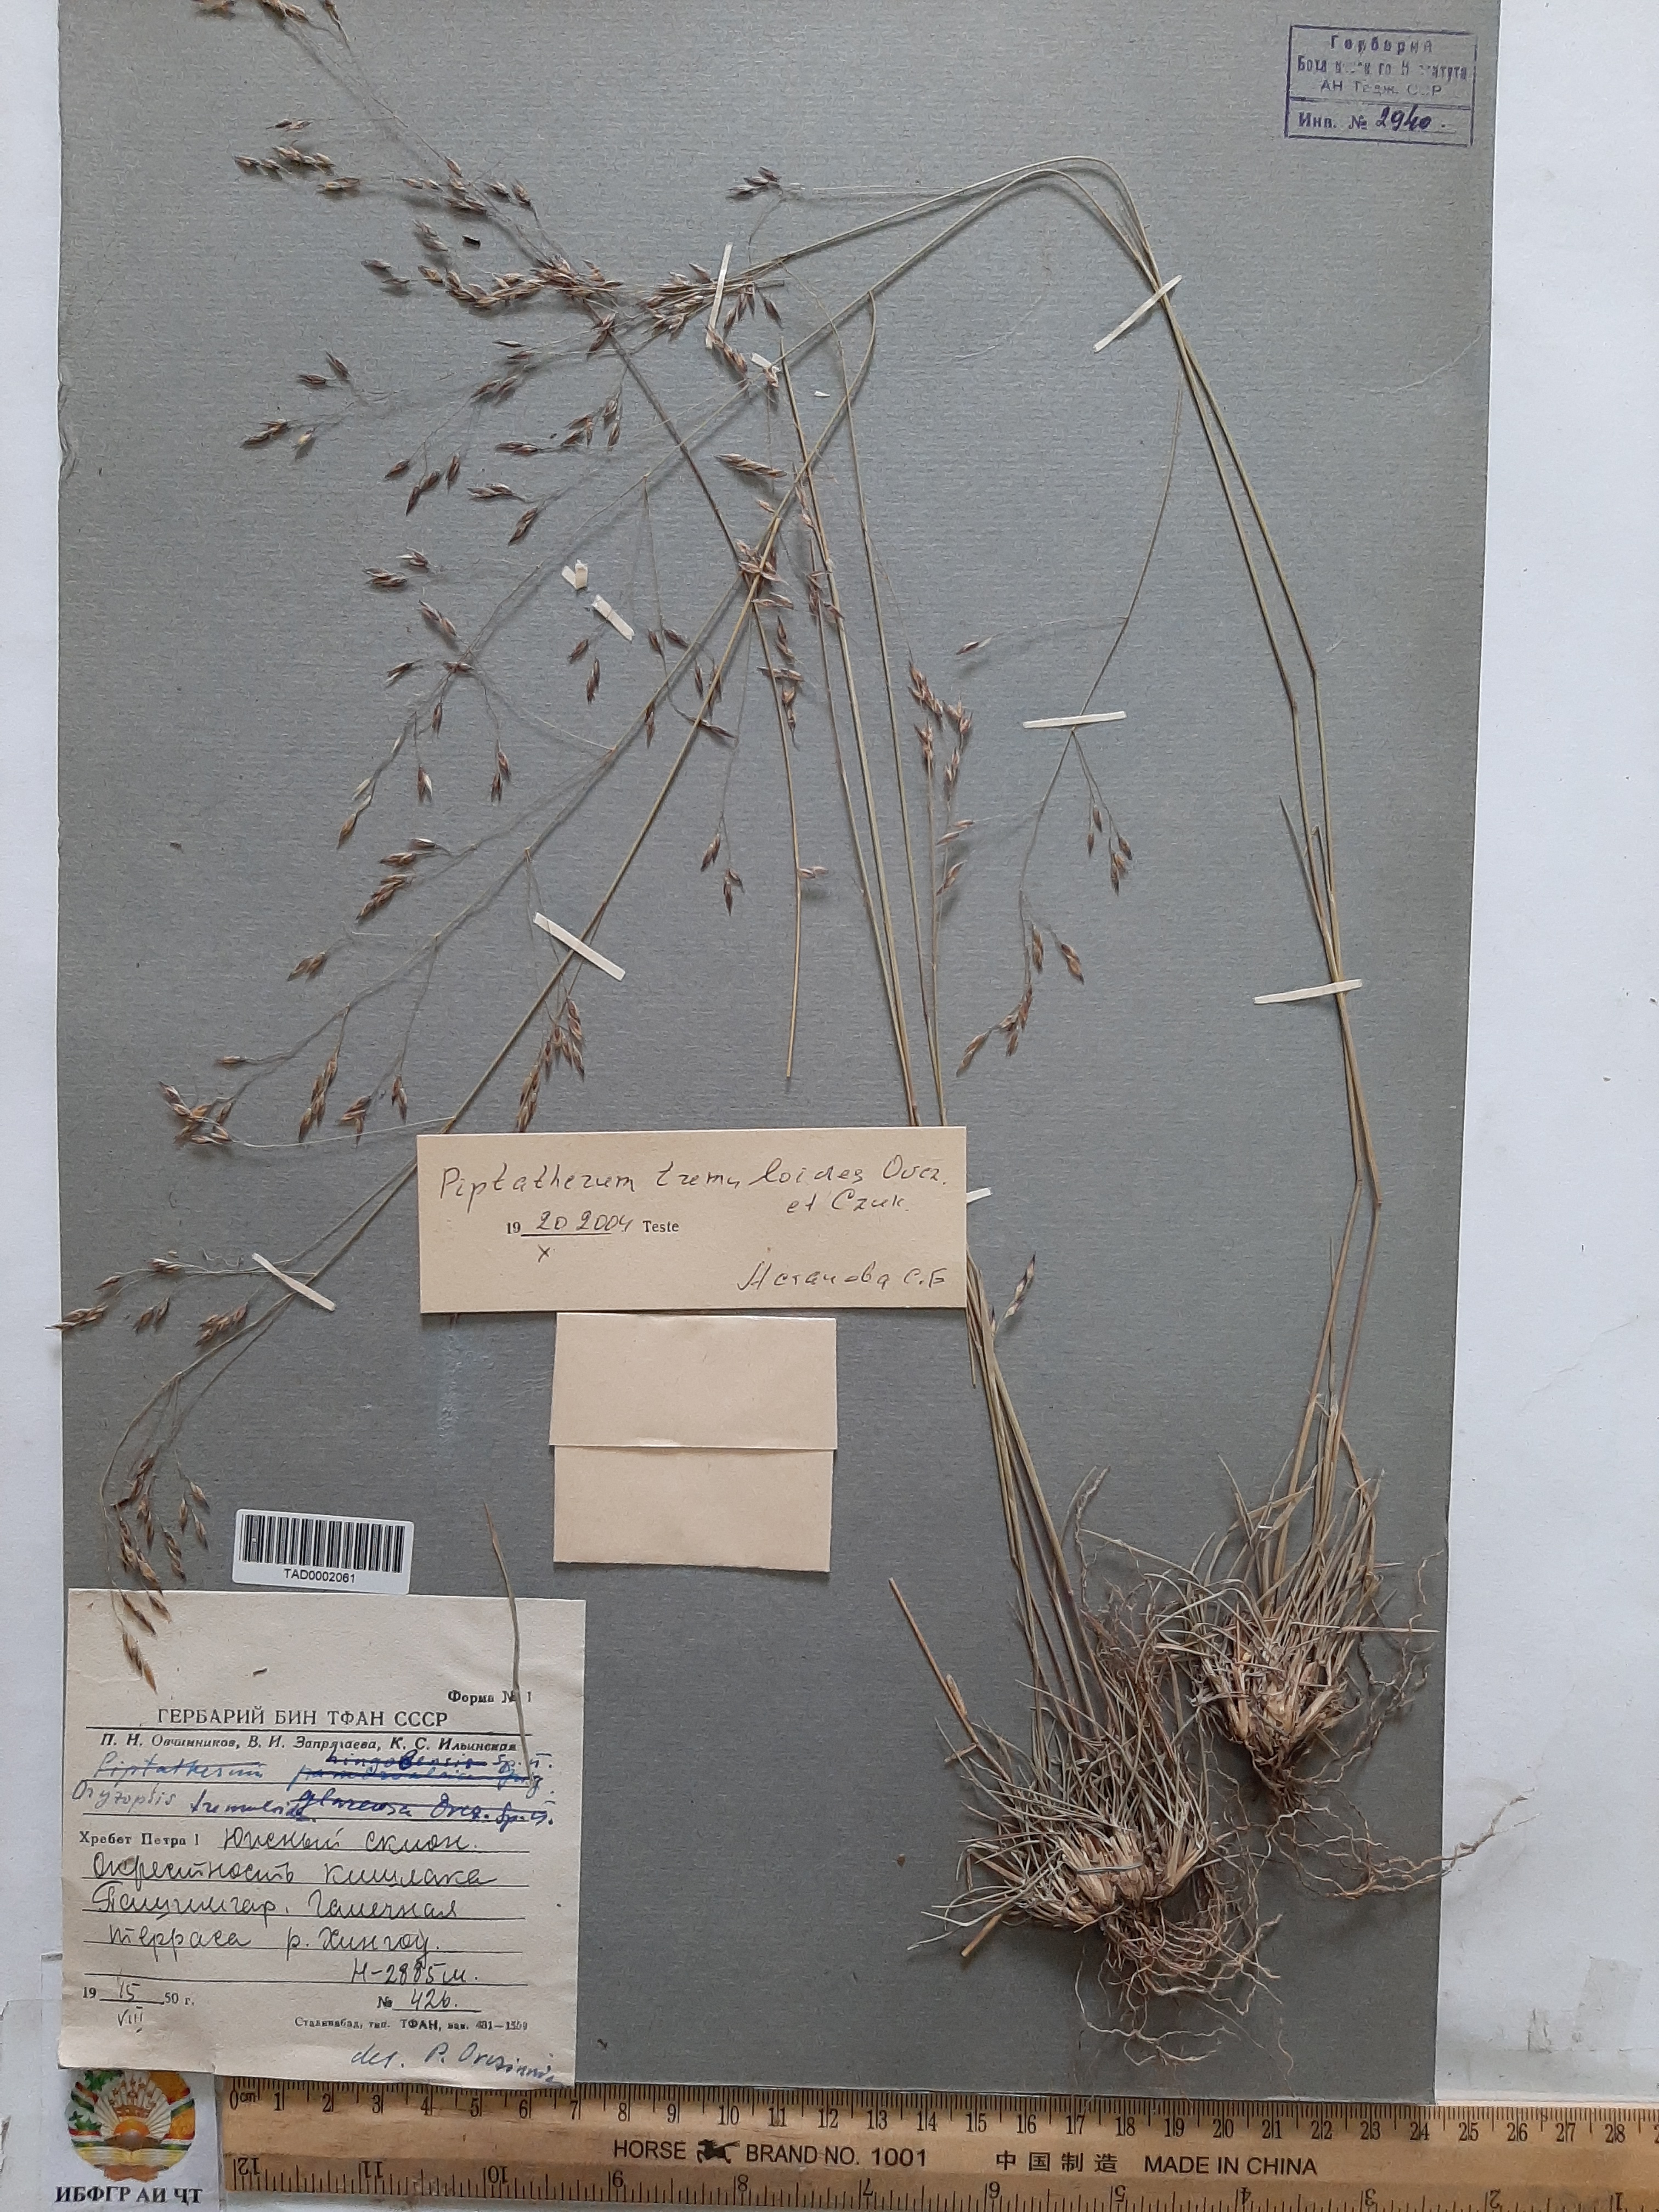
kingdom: Plantae
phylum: Tracheophyta
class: Liliopsida
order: Poales
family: Poaceae
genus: Piptatherum
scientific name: Piptatherum hilariae
